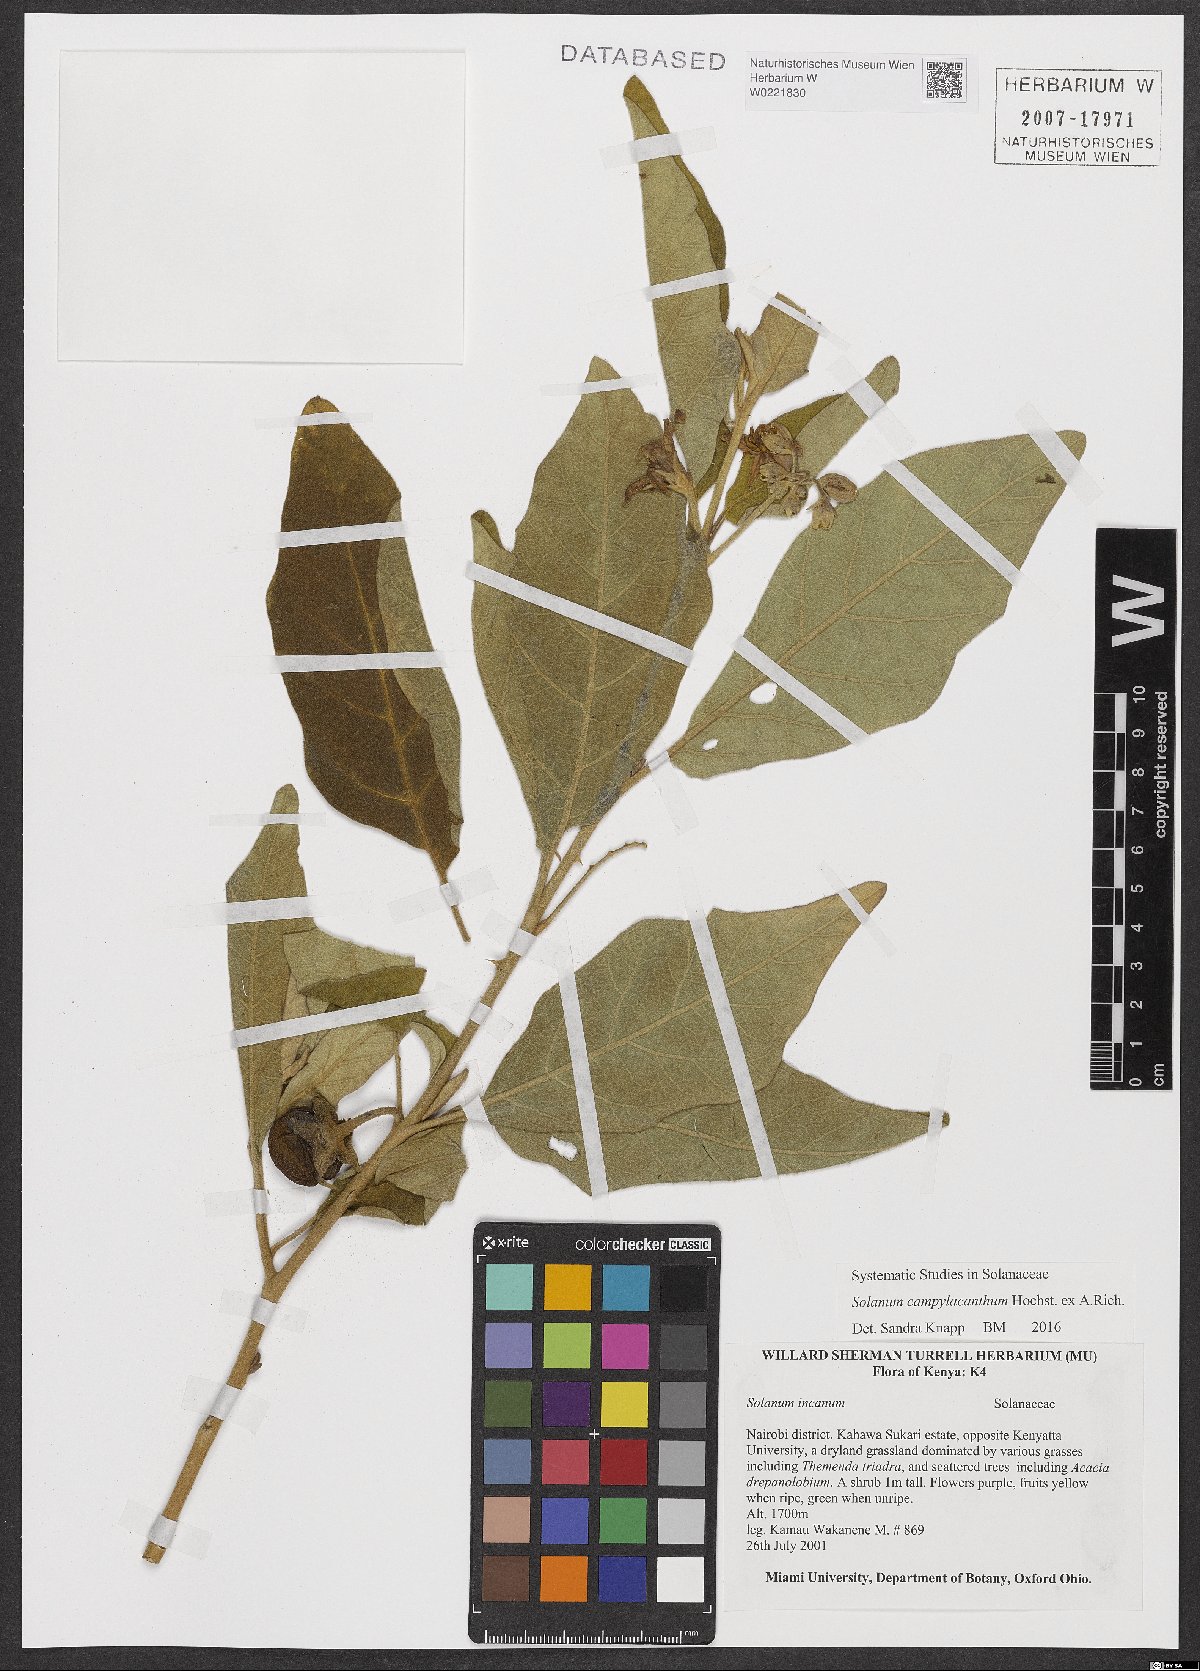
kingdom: Plantae
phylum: Tracheophyta
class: Magnoliopsida
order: Solanales
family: Solanaceae
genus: Solanum
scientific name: Solanum campylacanthum
